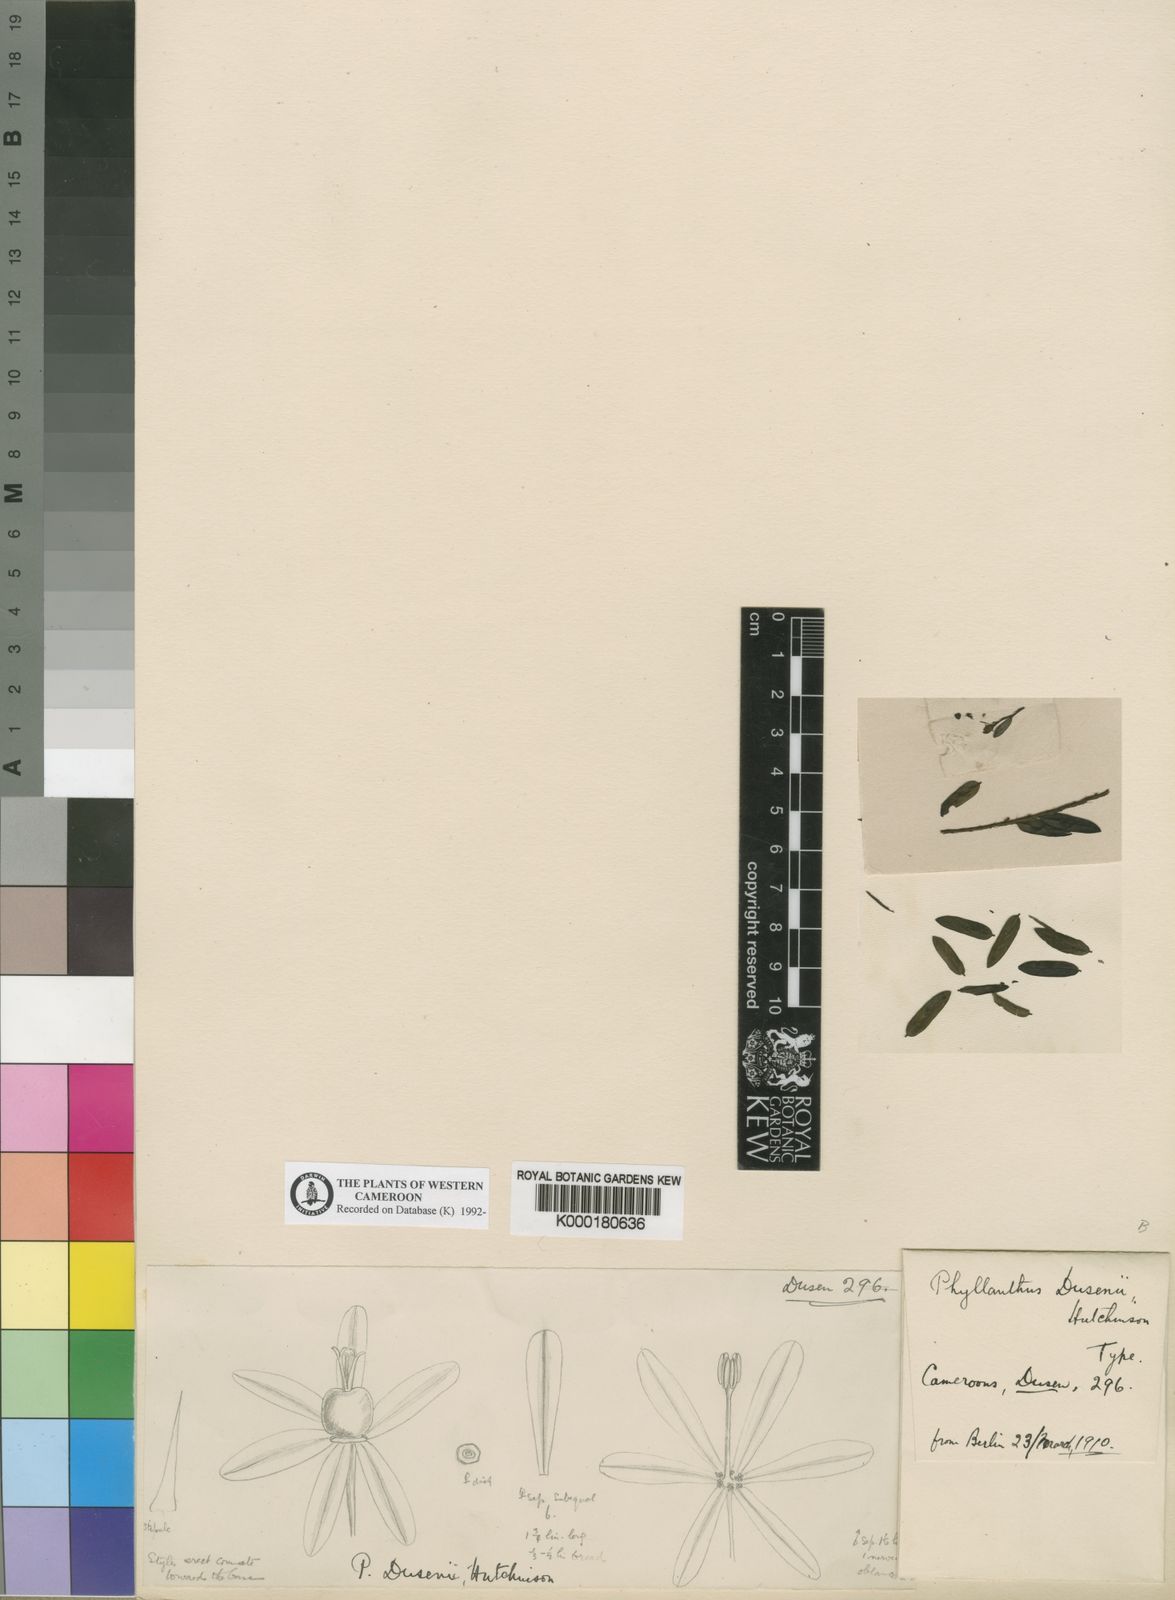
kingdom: Plantae
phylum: Tracheophyta
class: Magnoliopsida
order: Malpighiales
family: Phyllanthaceae
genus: Phyllanthus
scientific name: Phyllanthus dusenii
